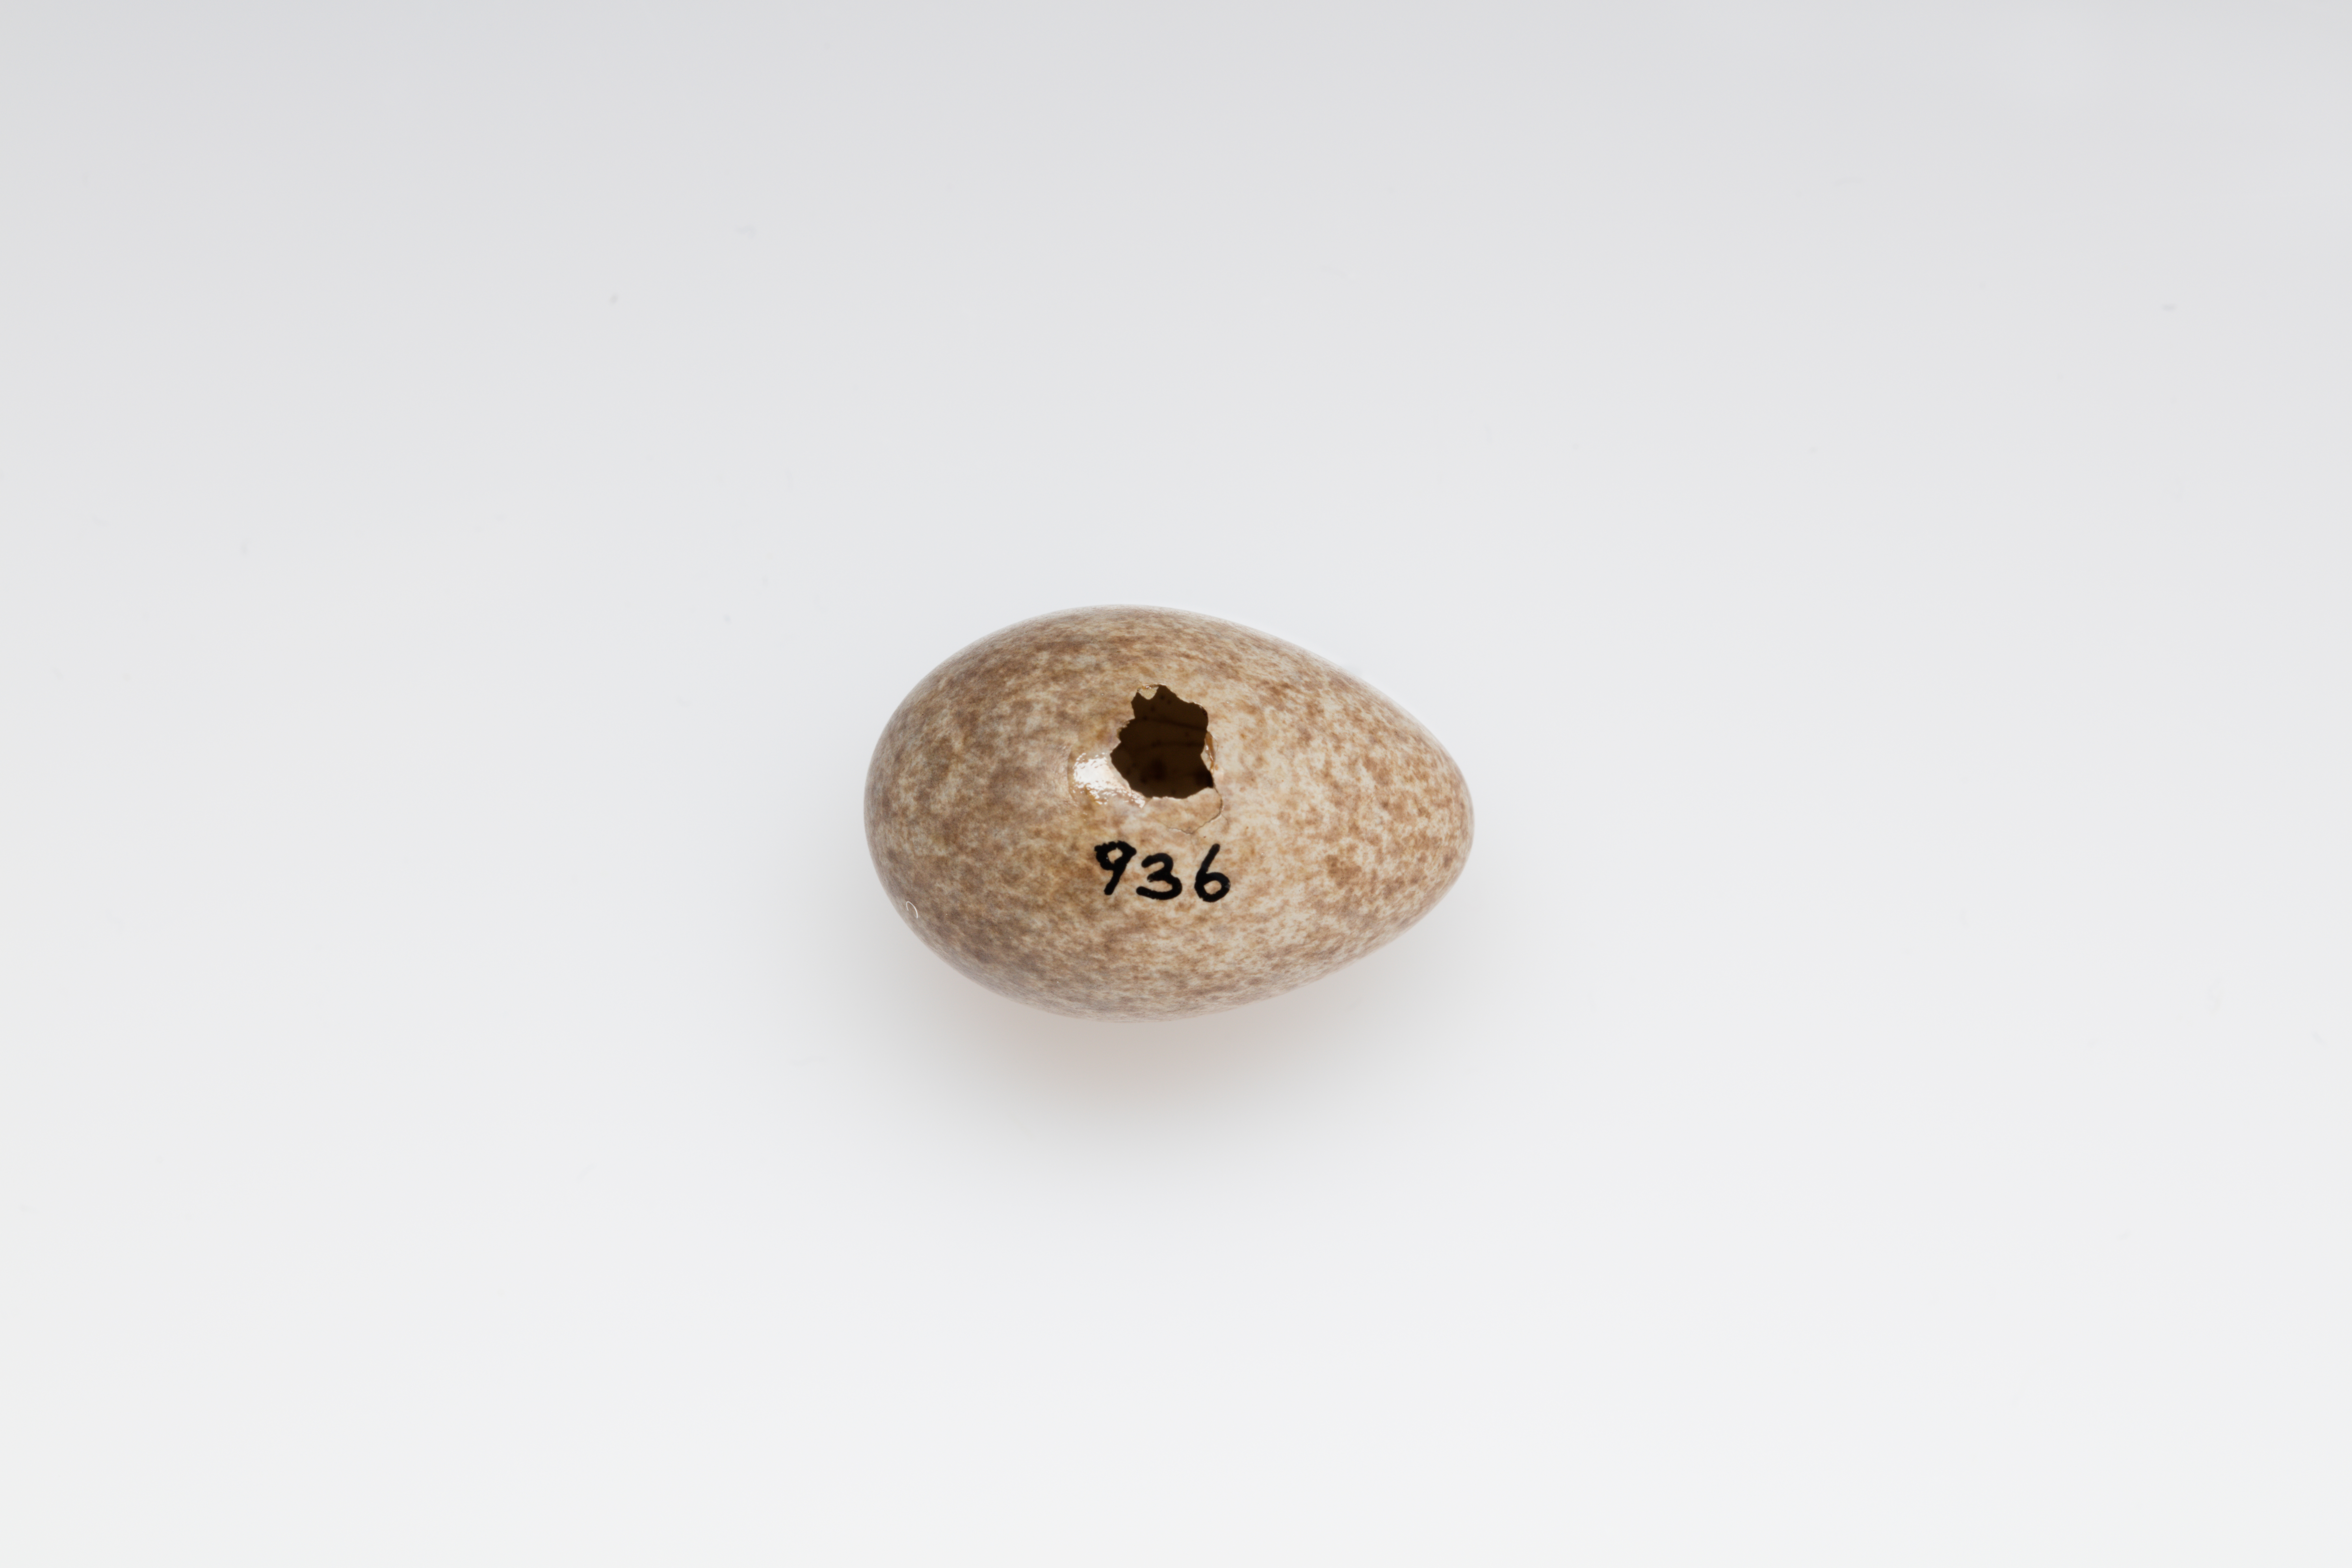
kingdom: Animalia
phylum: Chordata
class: Aves
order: Passeriformes
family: Alaudidae
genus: Alauda
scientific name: Alauda arvensis
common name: Eurasian skylark
